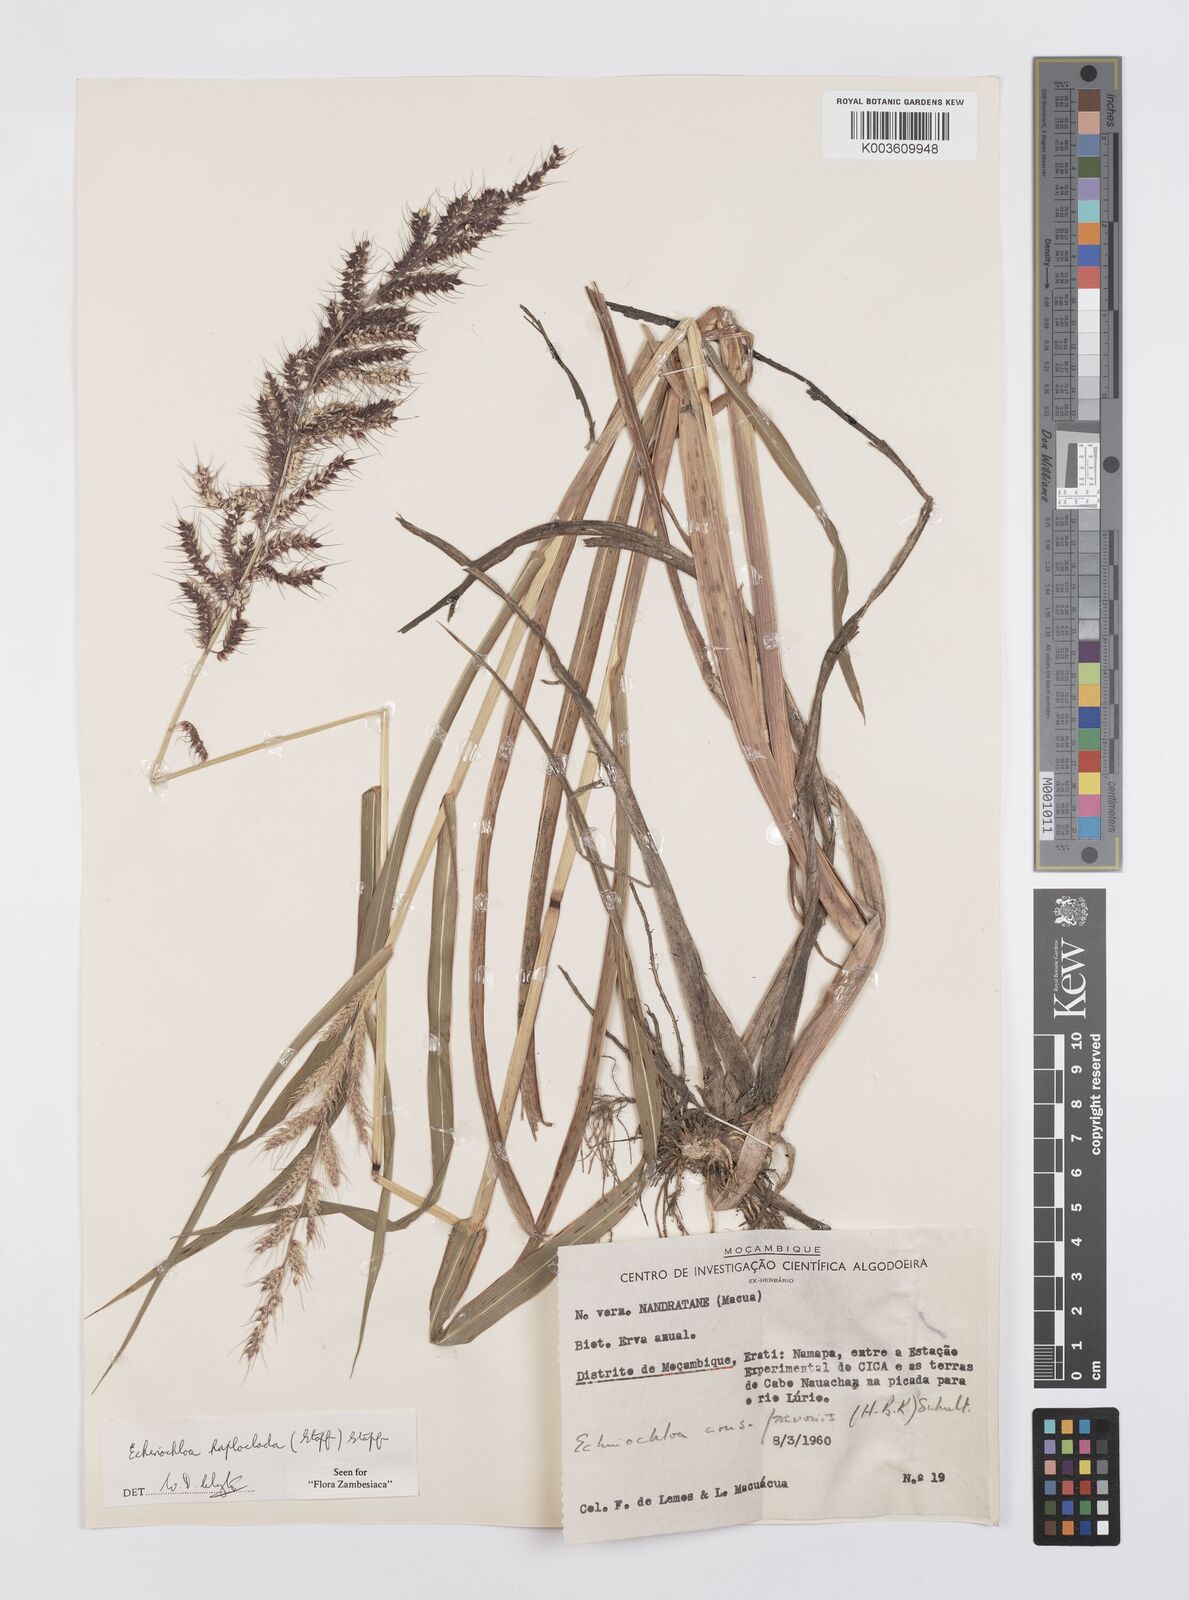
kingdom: Plantae
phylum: Tracheophyta
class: Liliopsida
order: Poales
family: Poaceae
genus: Echinochloa
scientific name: Echinochloa haploclada
